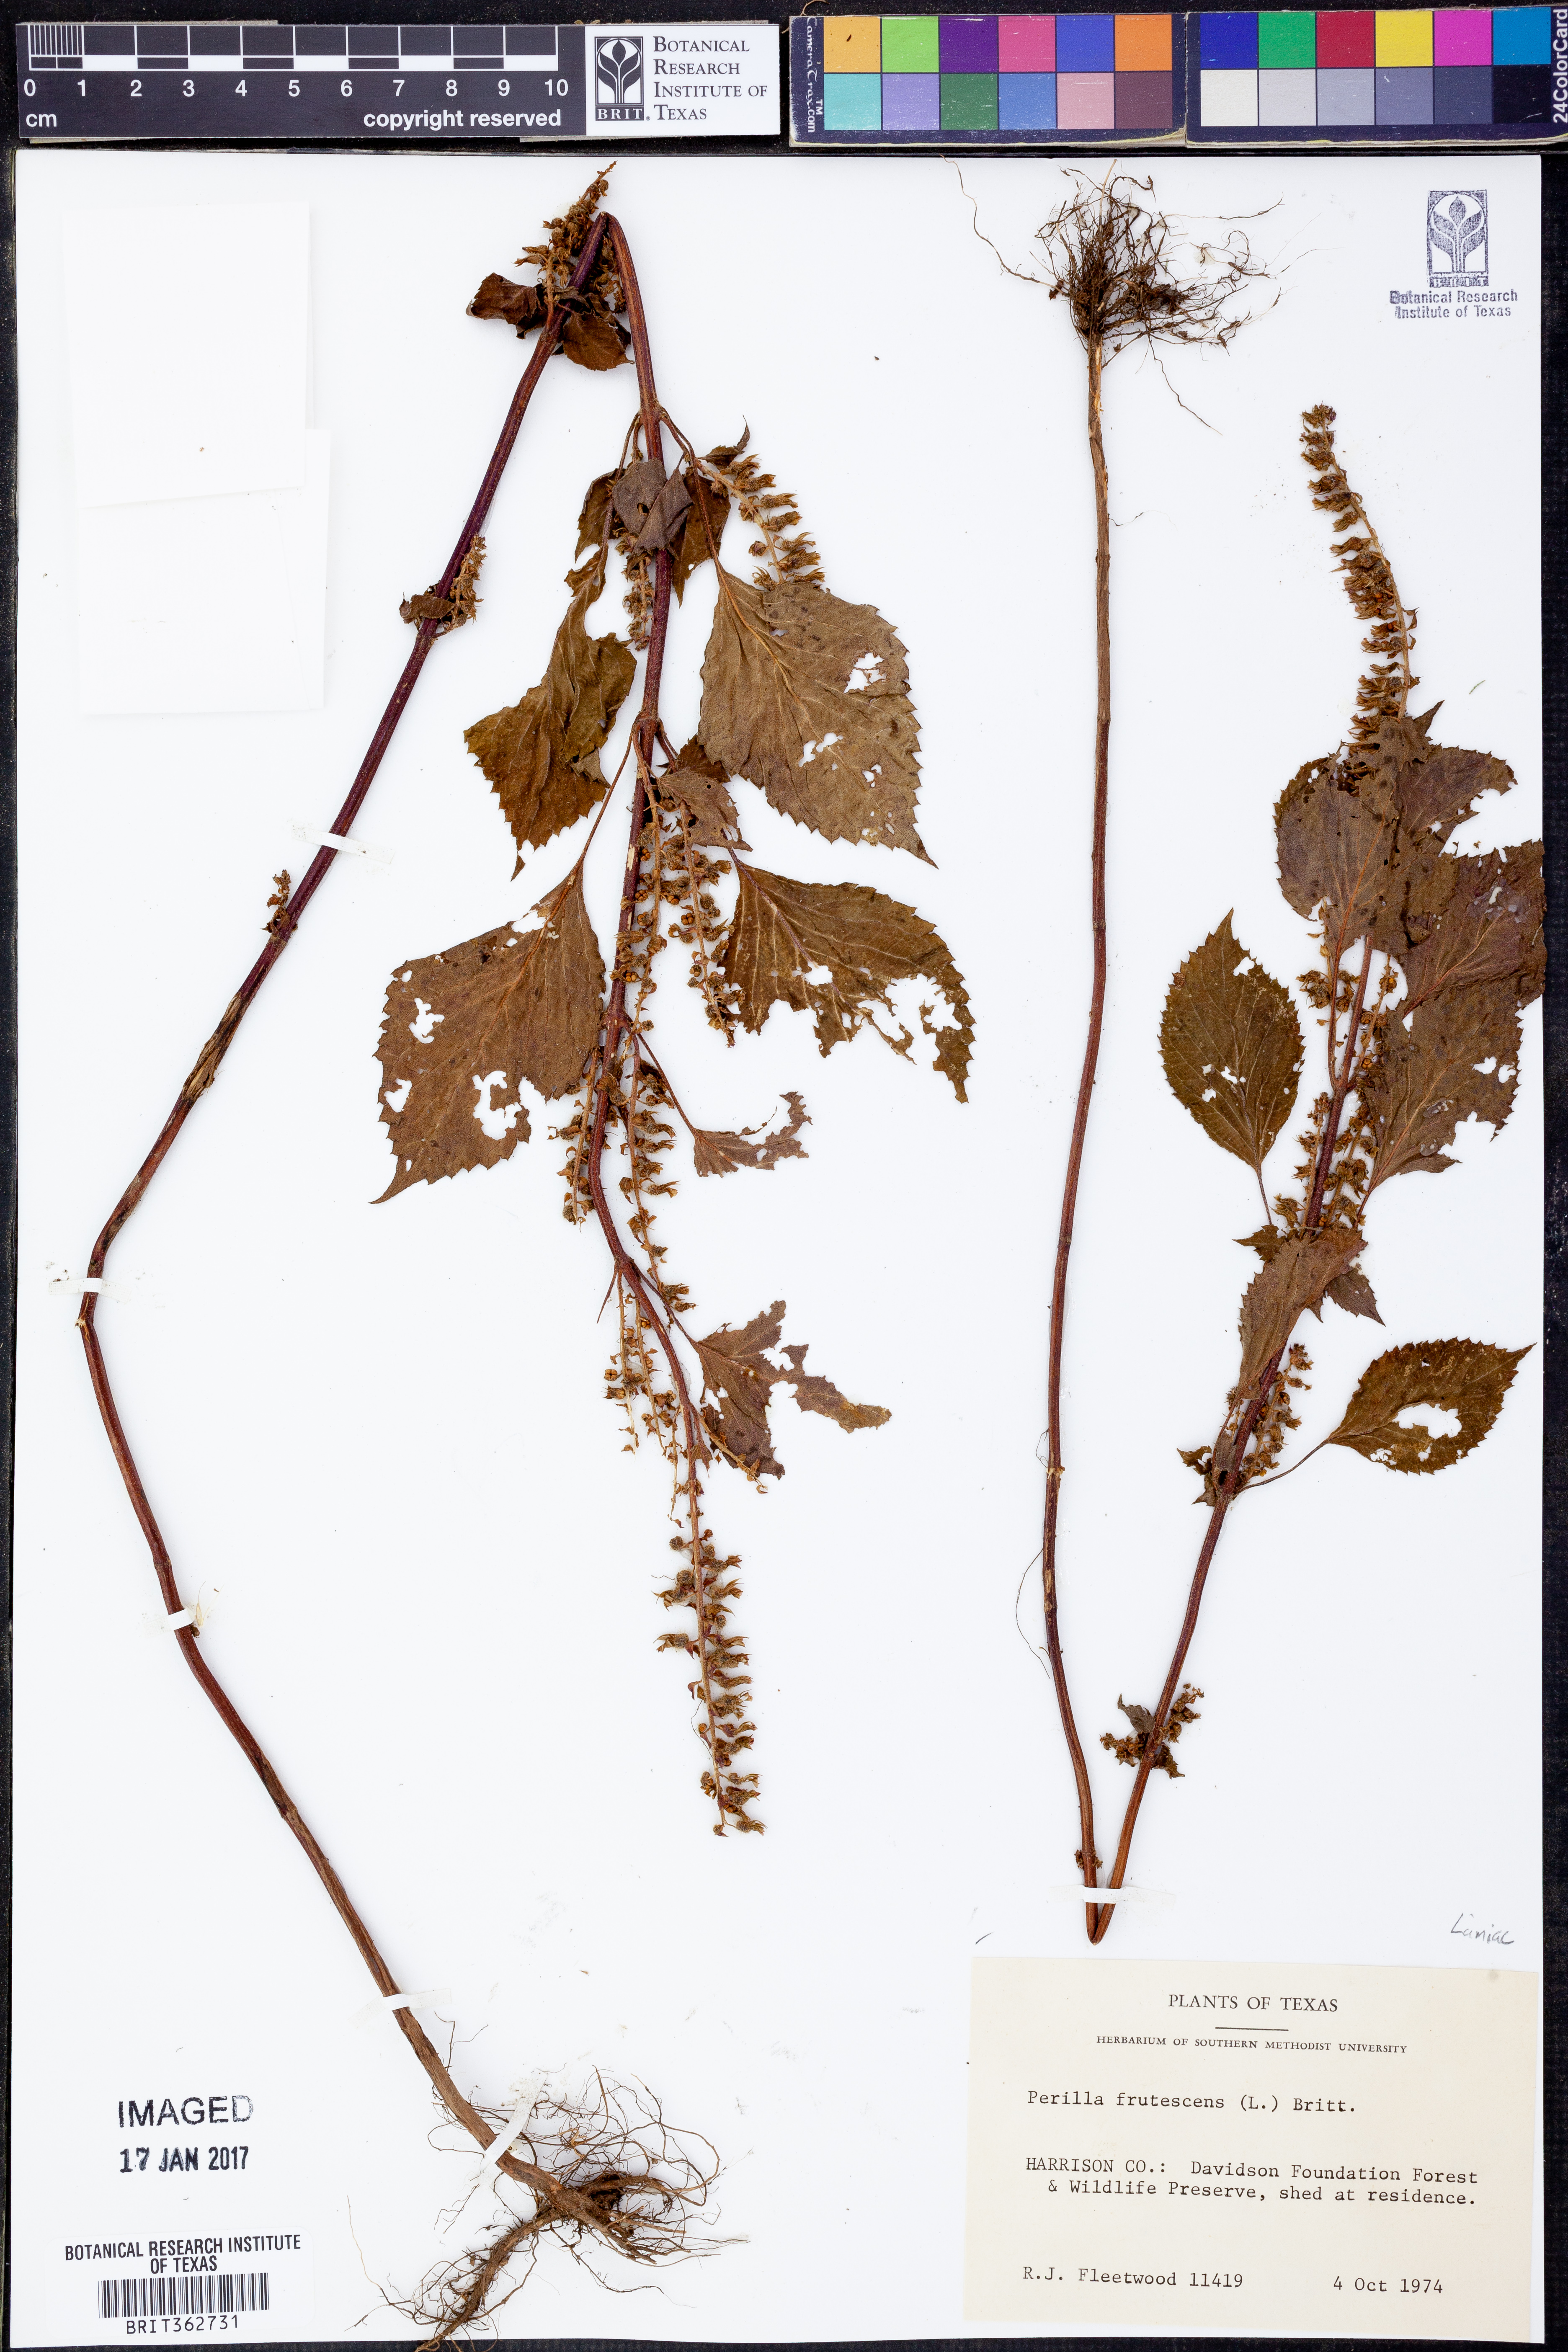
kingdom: Plantae
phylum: Tracheophyta
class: Magnoliopsida
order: Lamiales
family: Lamiaceae
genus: Perilla
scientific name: Perilla frutescens
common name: Perilla
